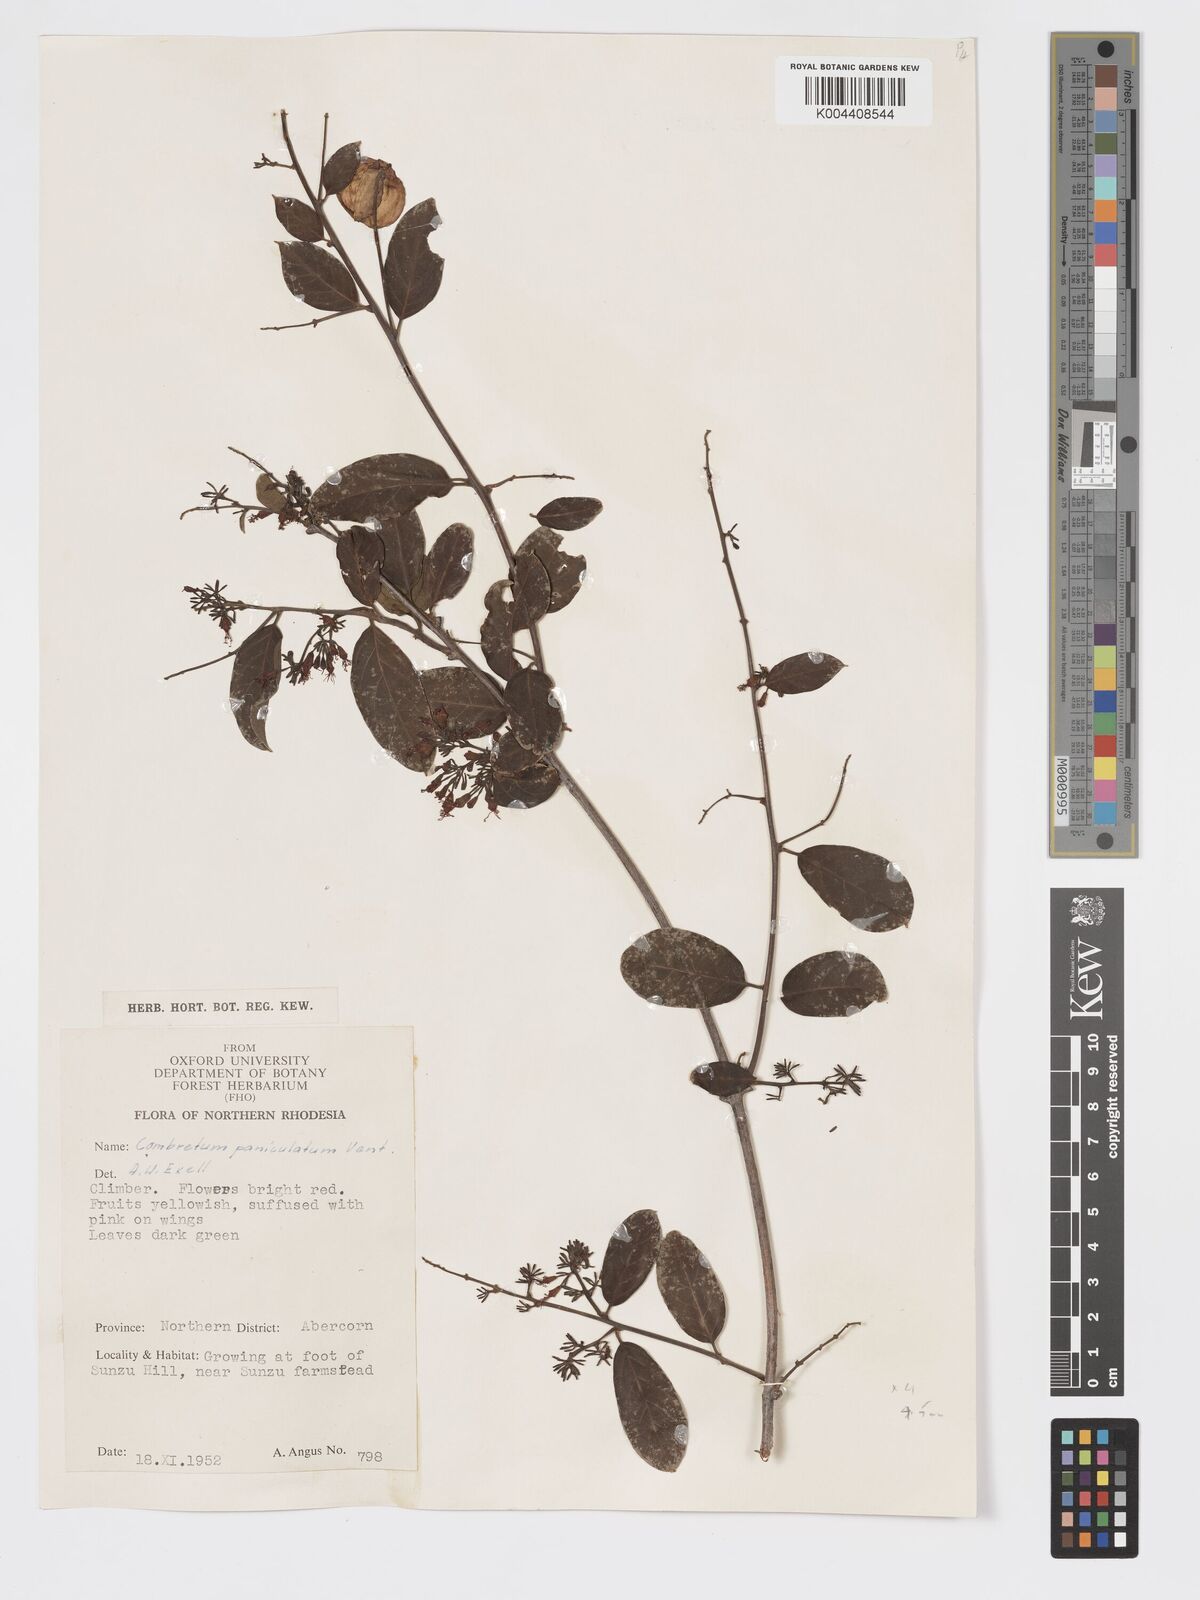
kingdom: Plantae
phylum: Tracheophyta
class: Magnoliopsida
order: Myrtales
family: Combretaceae
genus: Combretum
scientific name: Combretum paniculatum
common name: Fire vine
